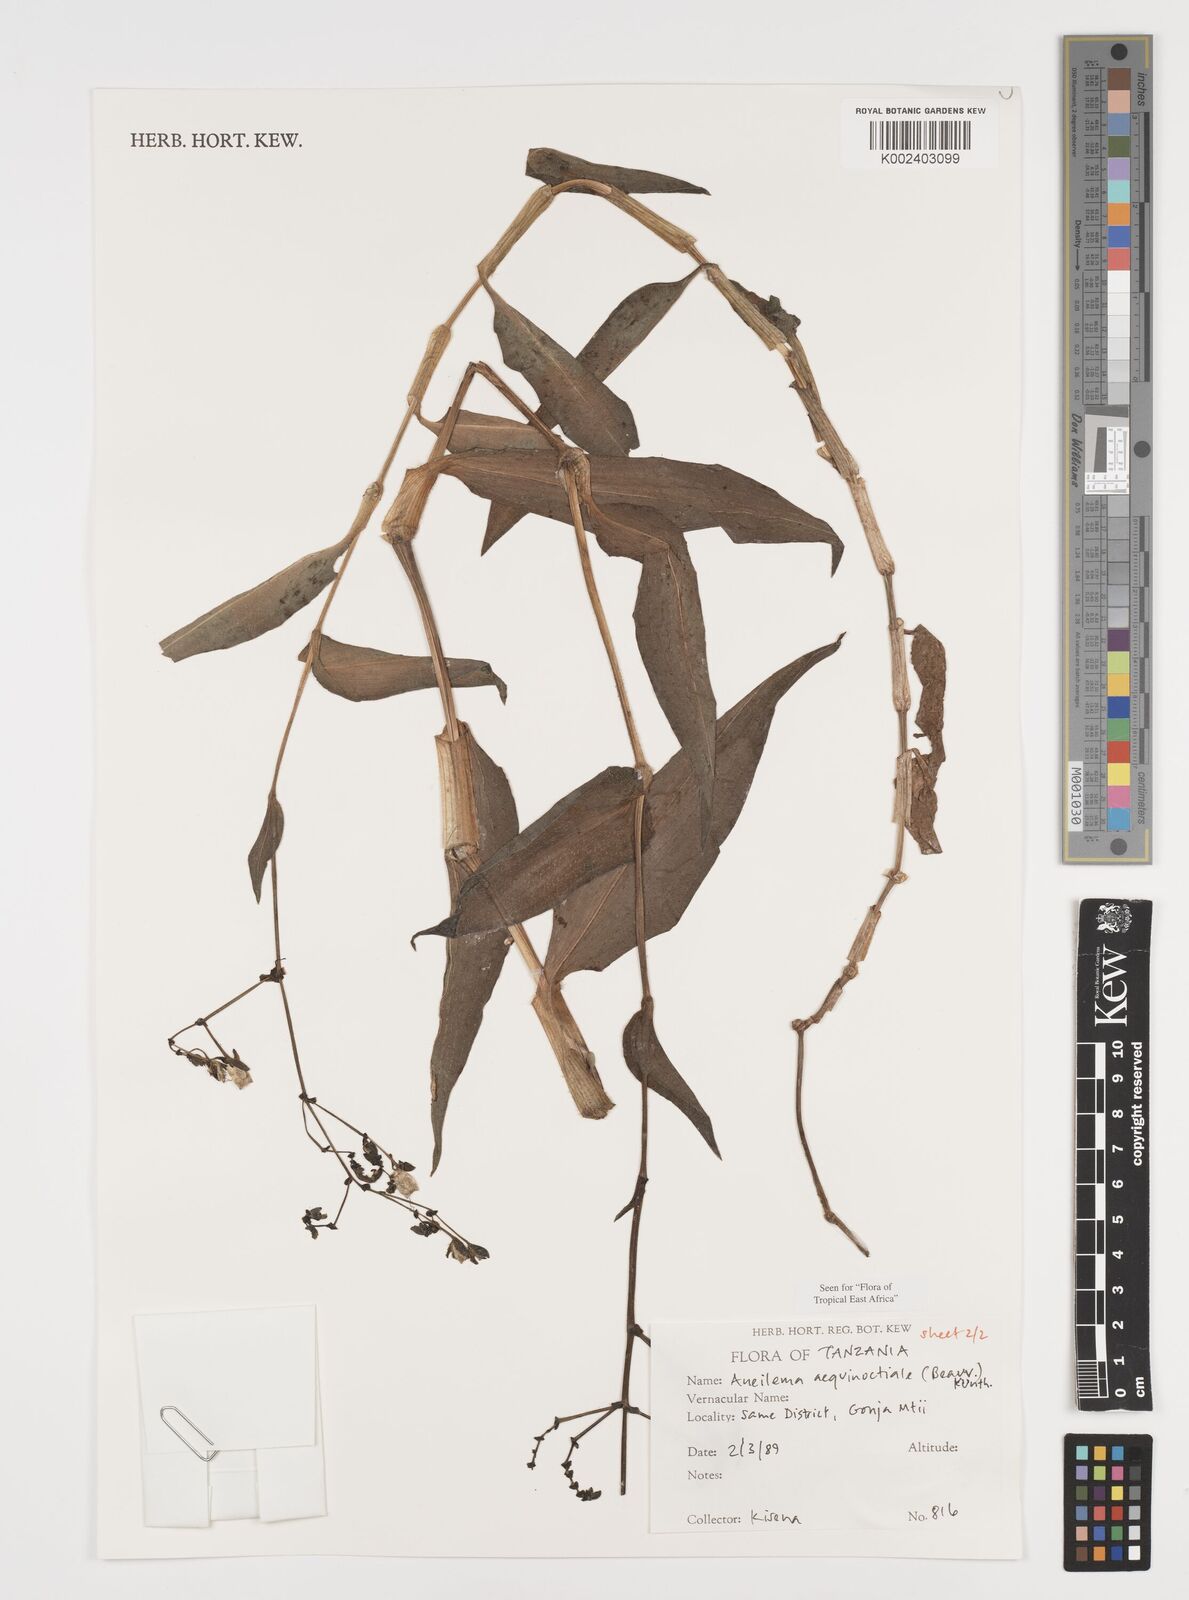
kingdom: Plantae
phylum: Tracheophyta
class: Liliopsida
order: Commelinales
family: Commelinaceae
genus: Aneilema
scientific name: Aneilema aequinoctiale
